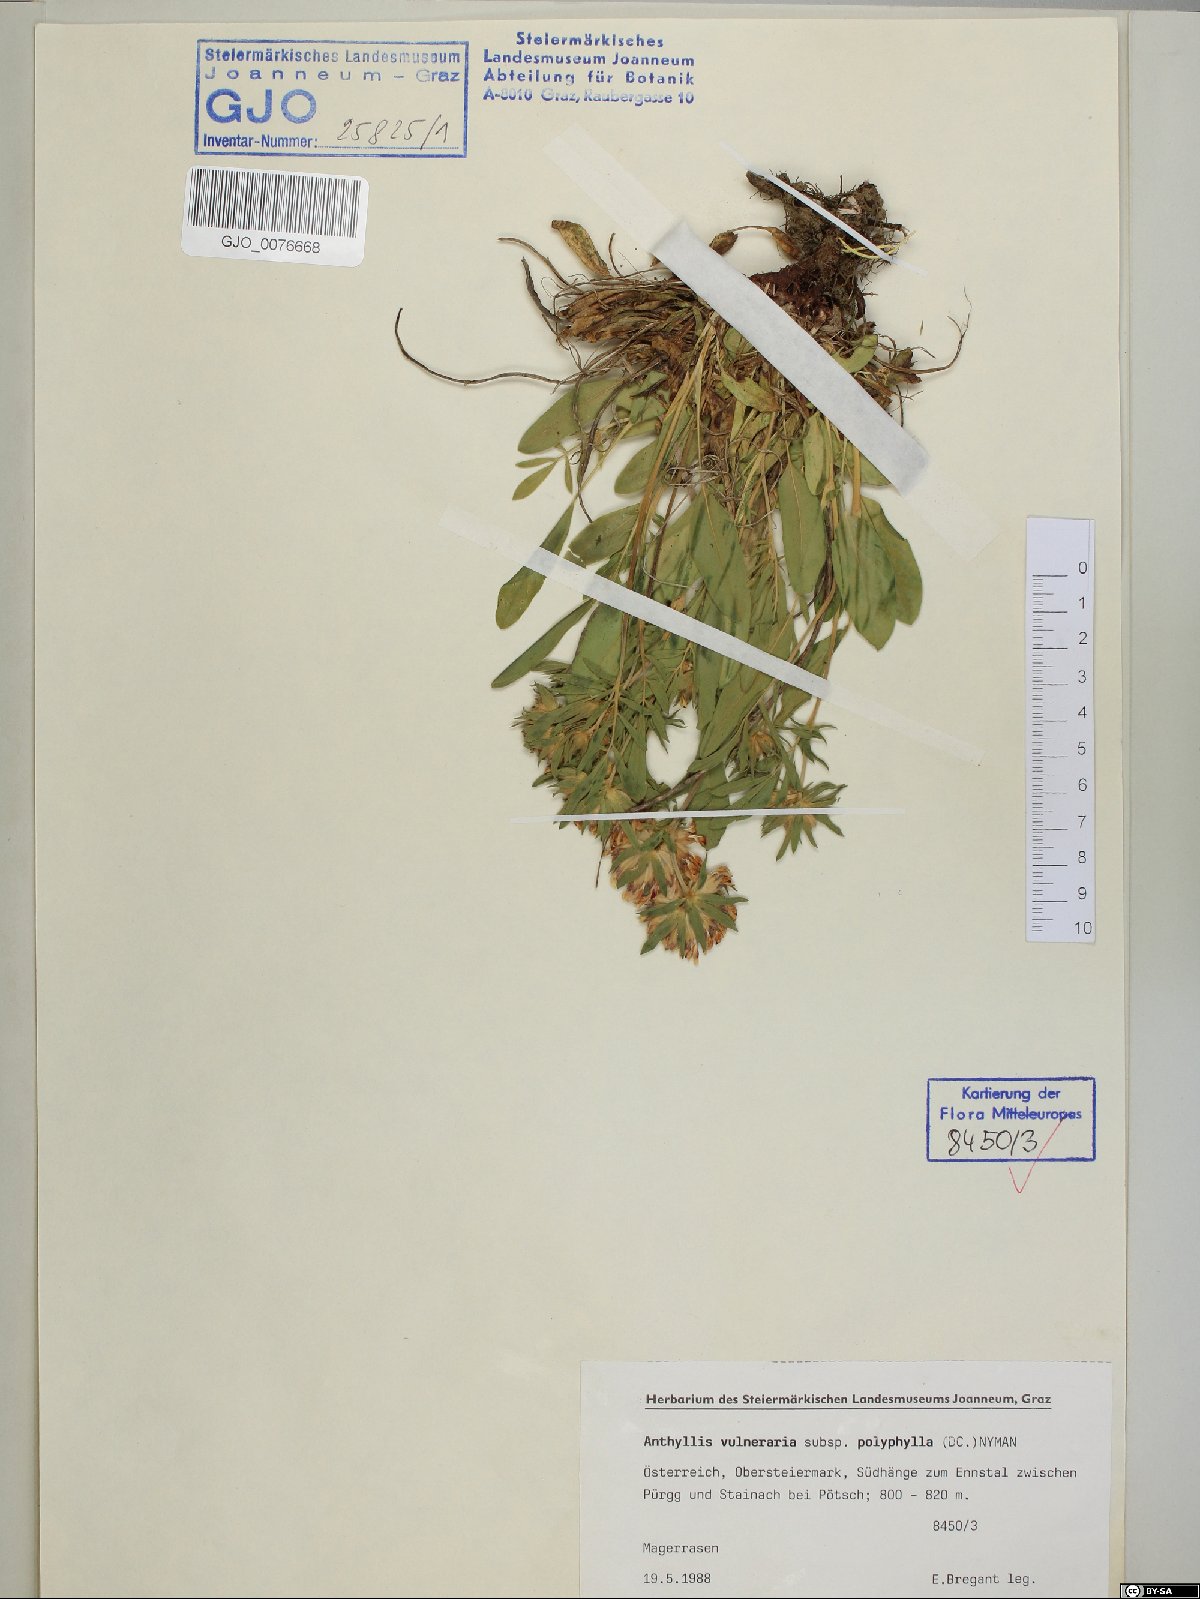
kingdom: Plantae
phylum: Tracheophyta
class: Magnoliopsida
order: Fabales
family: Fabaceae
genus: Anthyllis
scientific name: Anthyllis vulneraria
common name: Kidney vetch
